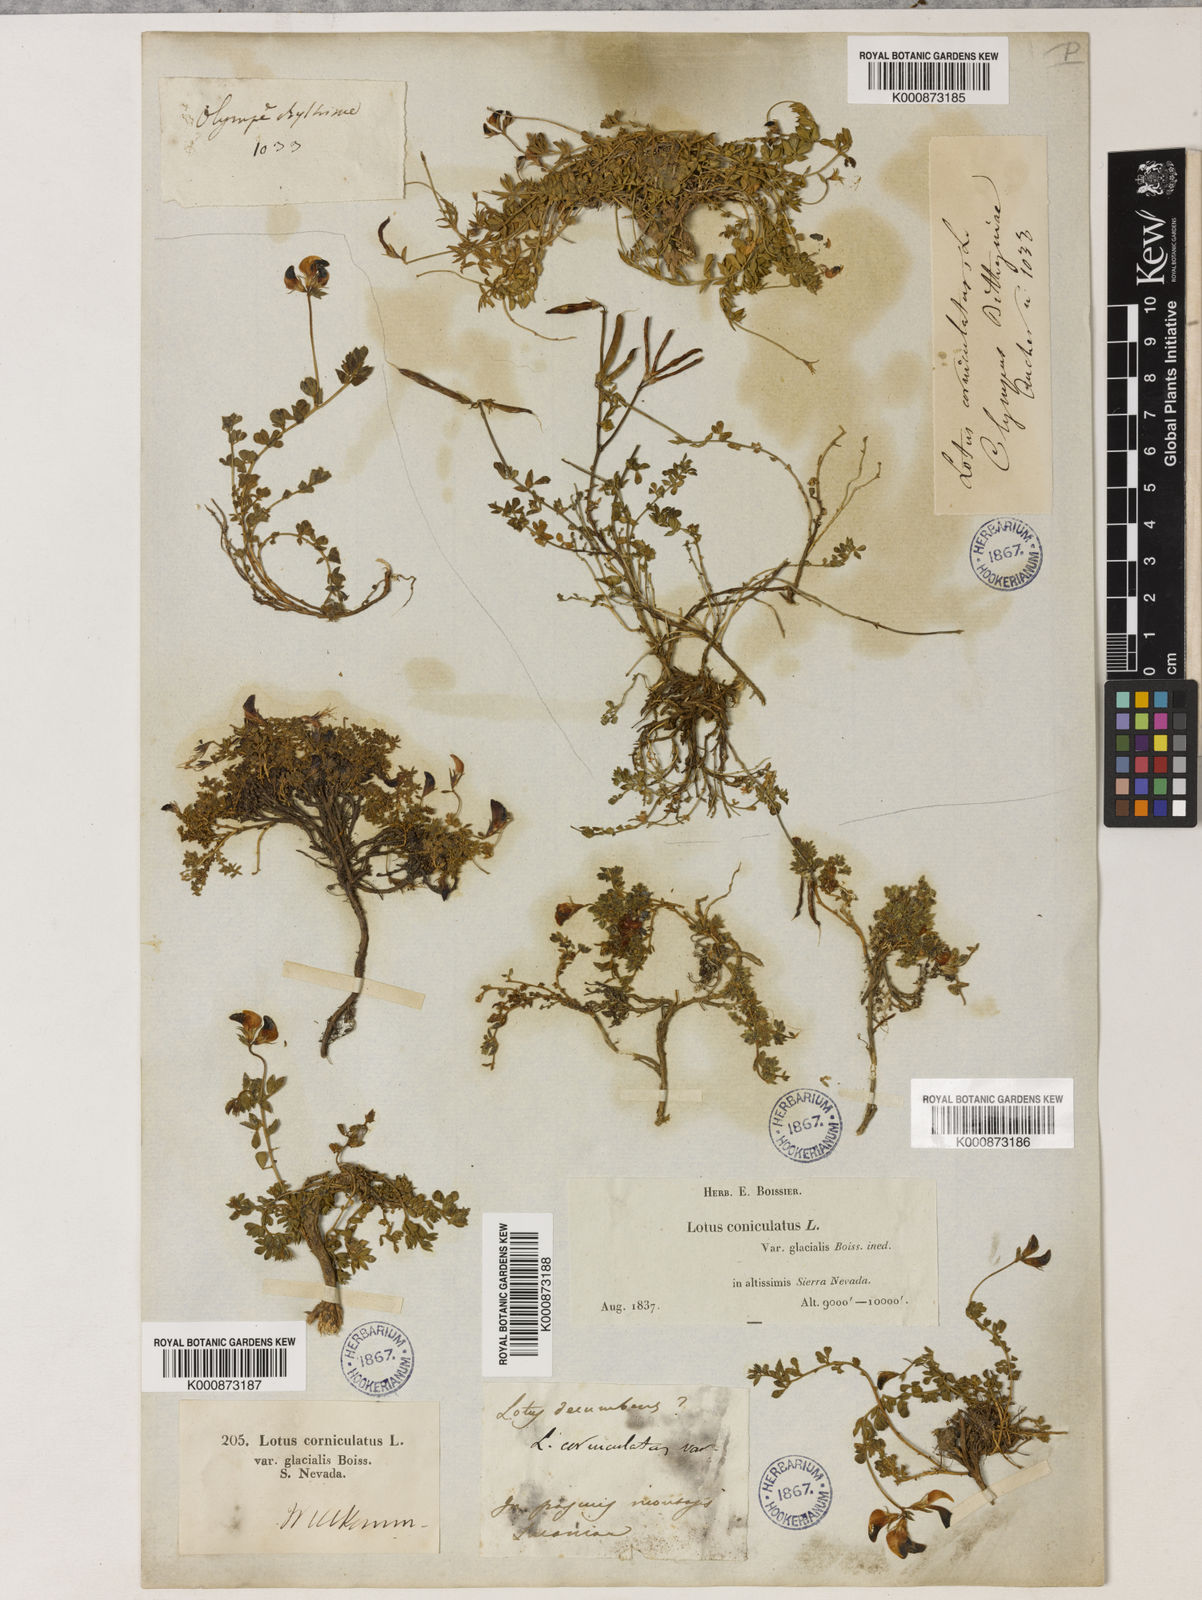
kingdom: Plantae
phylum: Tracheophyta
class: Magnoliopsida
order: Fabales
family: Fabaceae
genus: Lotus
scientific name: Lotus glareosus
